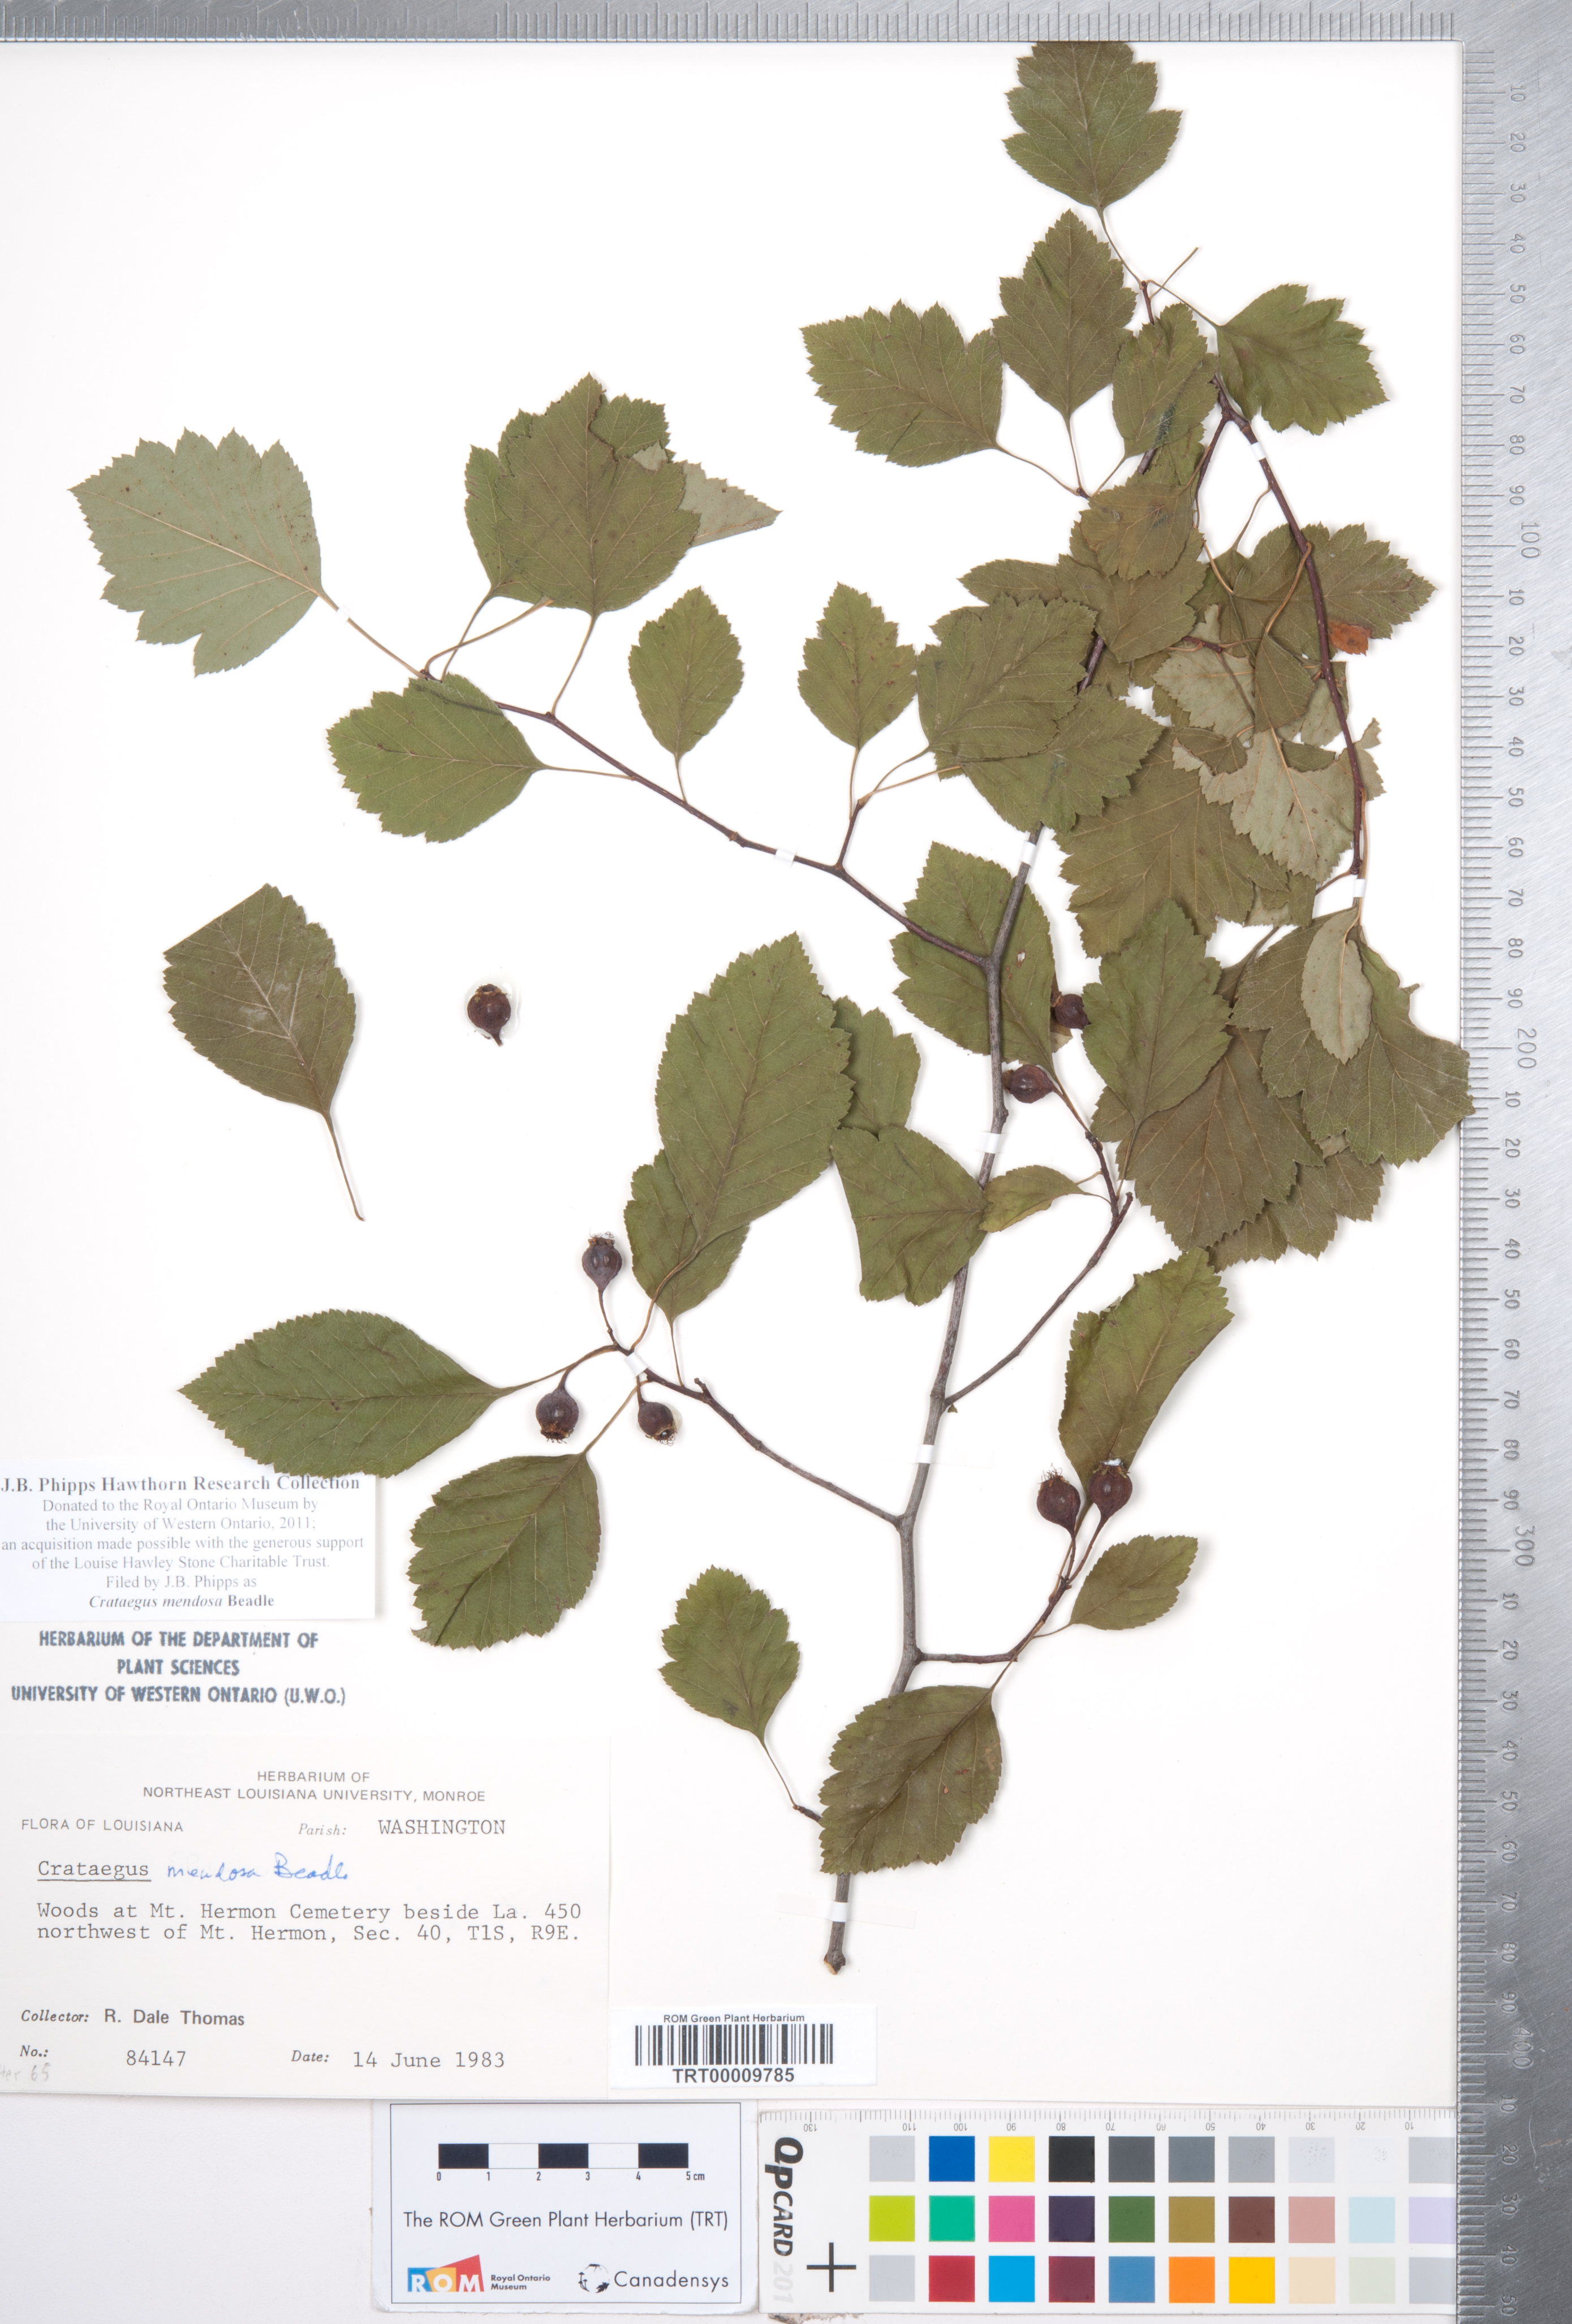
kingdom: Plantae
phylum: Tracheophyta
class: Magnoliopsida
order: Rosales
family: Rosaceae
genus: Crataegus
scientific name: Crataegus pulcherrima
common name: Beautiful hawthorn
